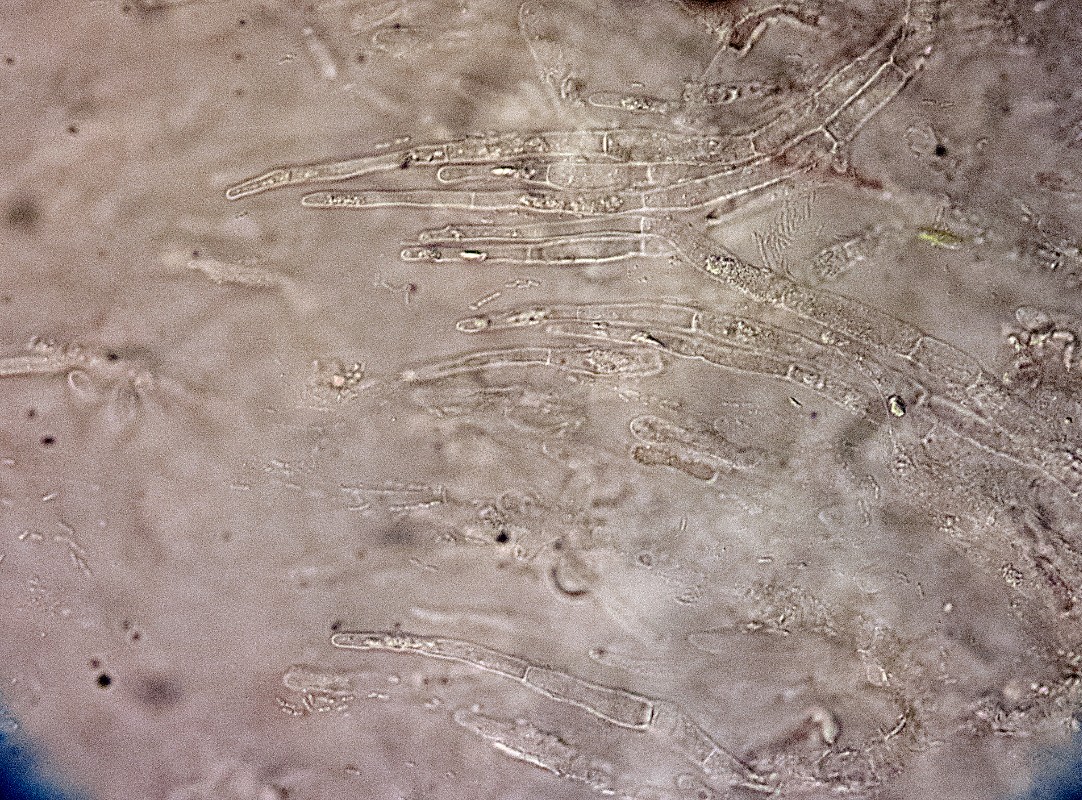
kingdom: Fungi
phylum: Basidiomycota
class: Agaricomycetes
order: Russulales
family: Russulaceae
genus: Russula
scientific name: Russula lilacea
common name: lilla skørhat
